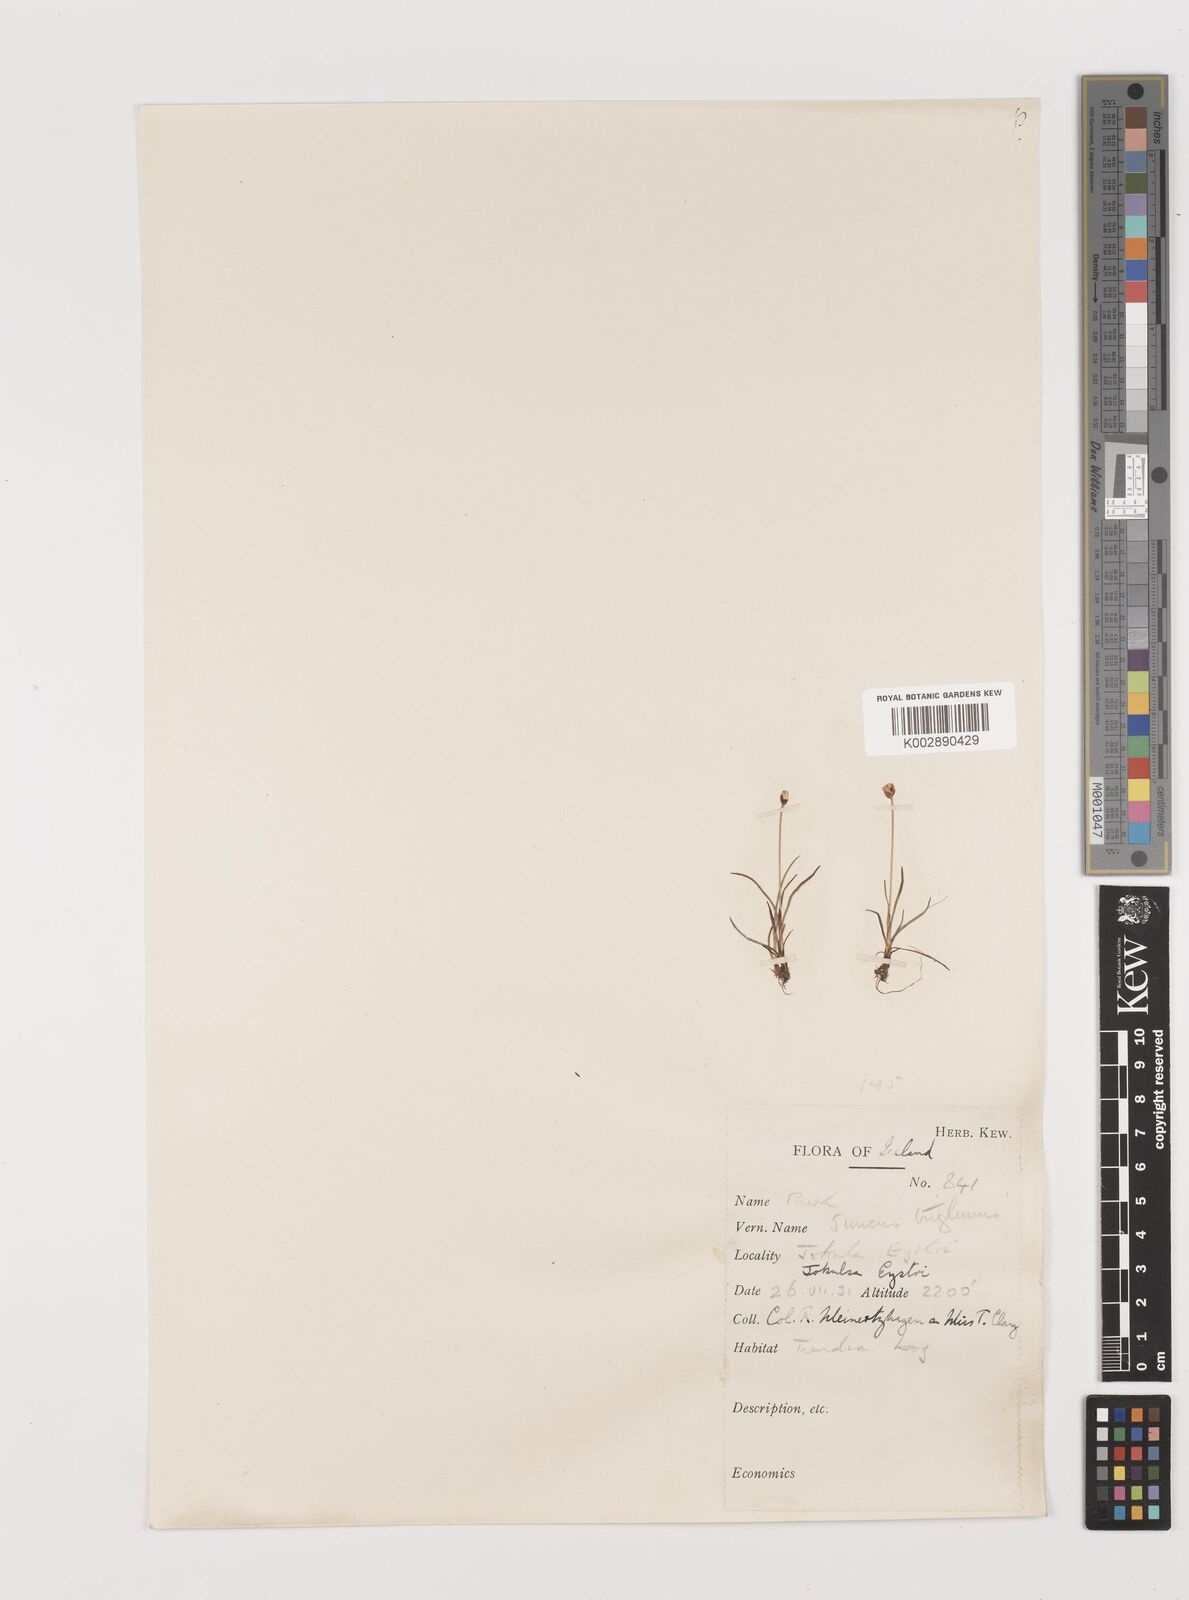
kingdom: Plantae
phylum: Tracheophyta
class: Liliopsida
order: Poales
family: Juncaceae
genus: Juncus
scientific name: Juncus triglumis
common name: Three-flowered rush
